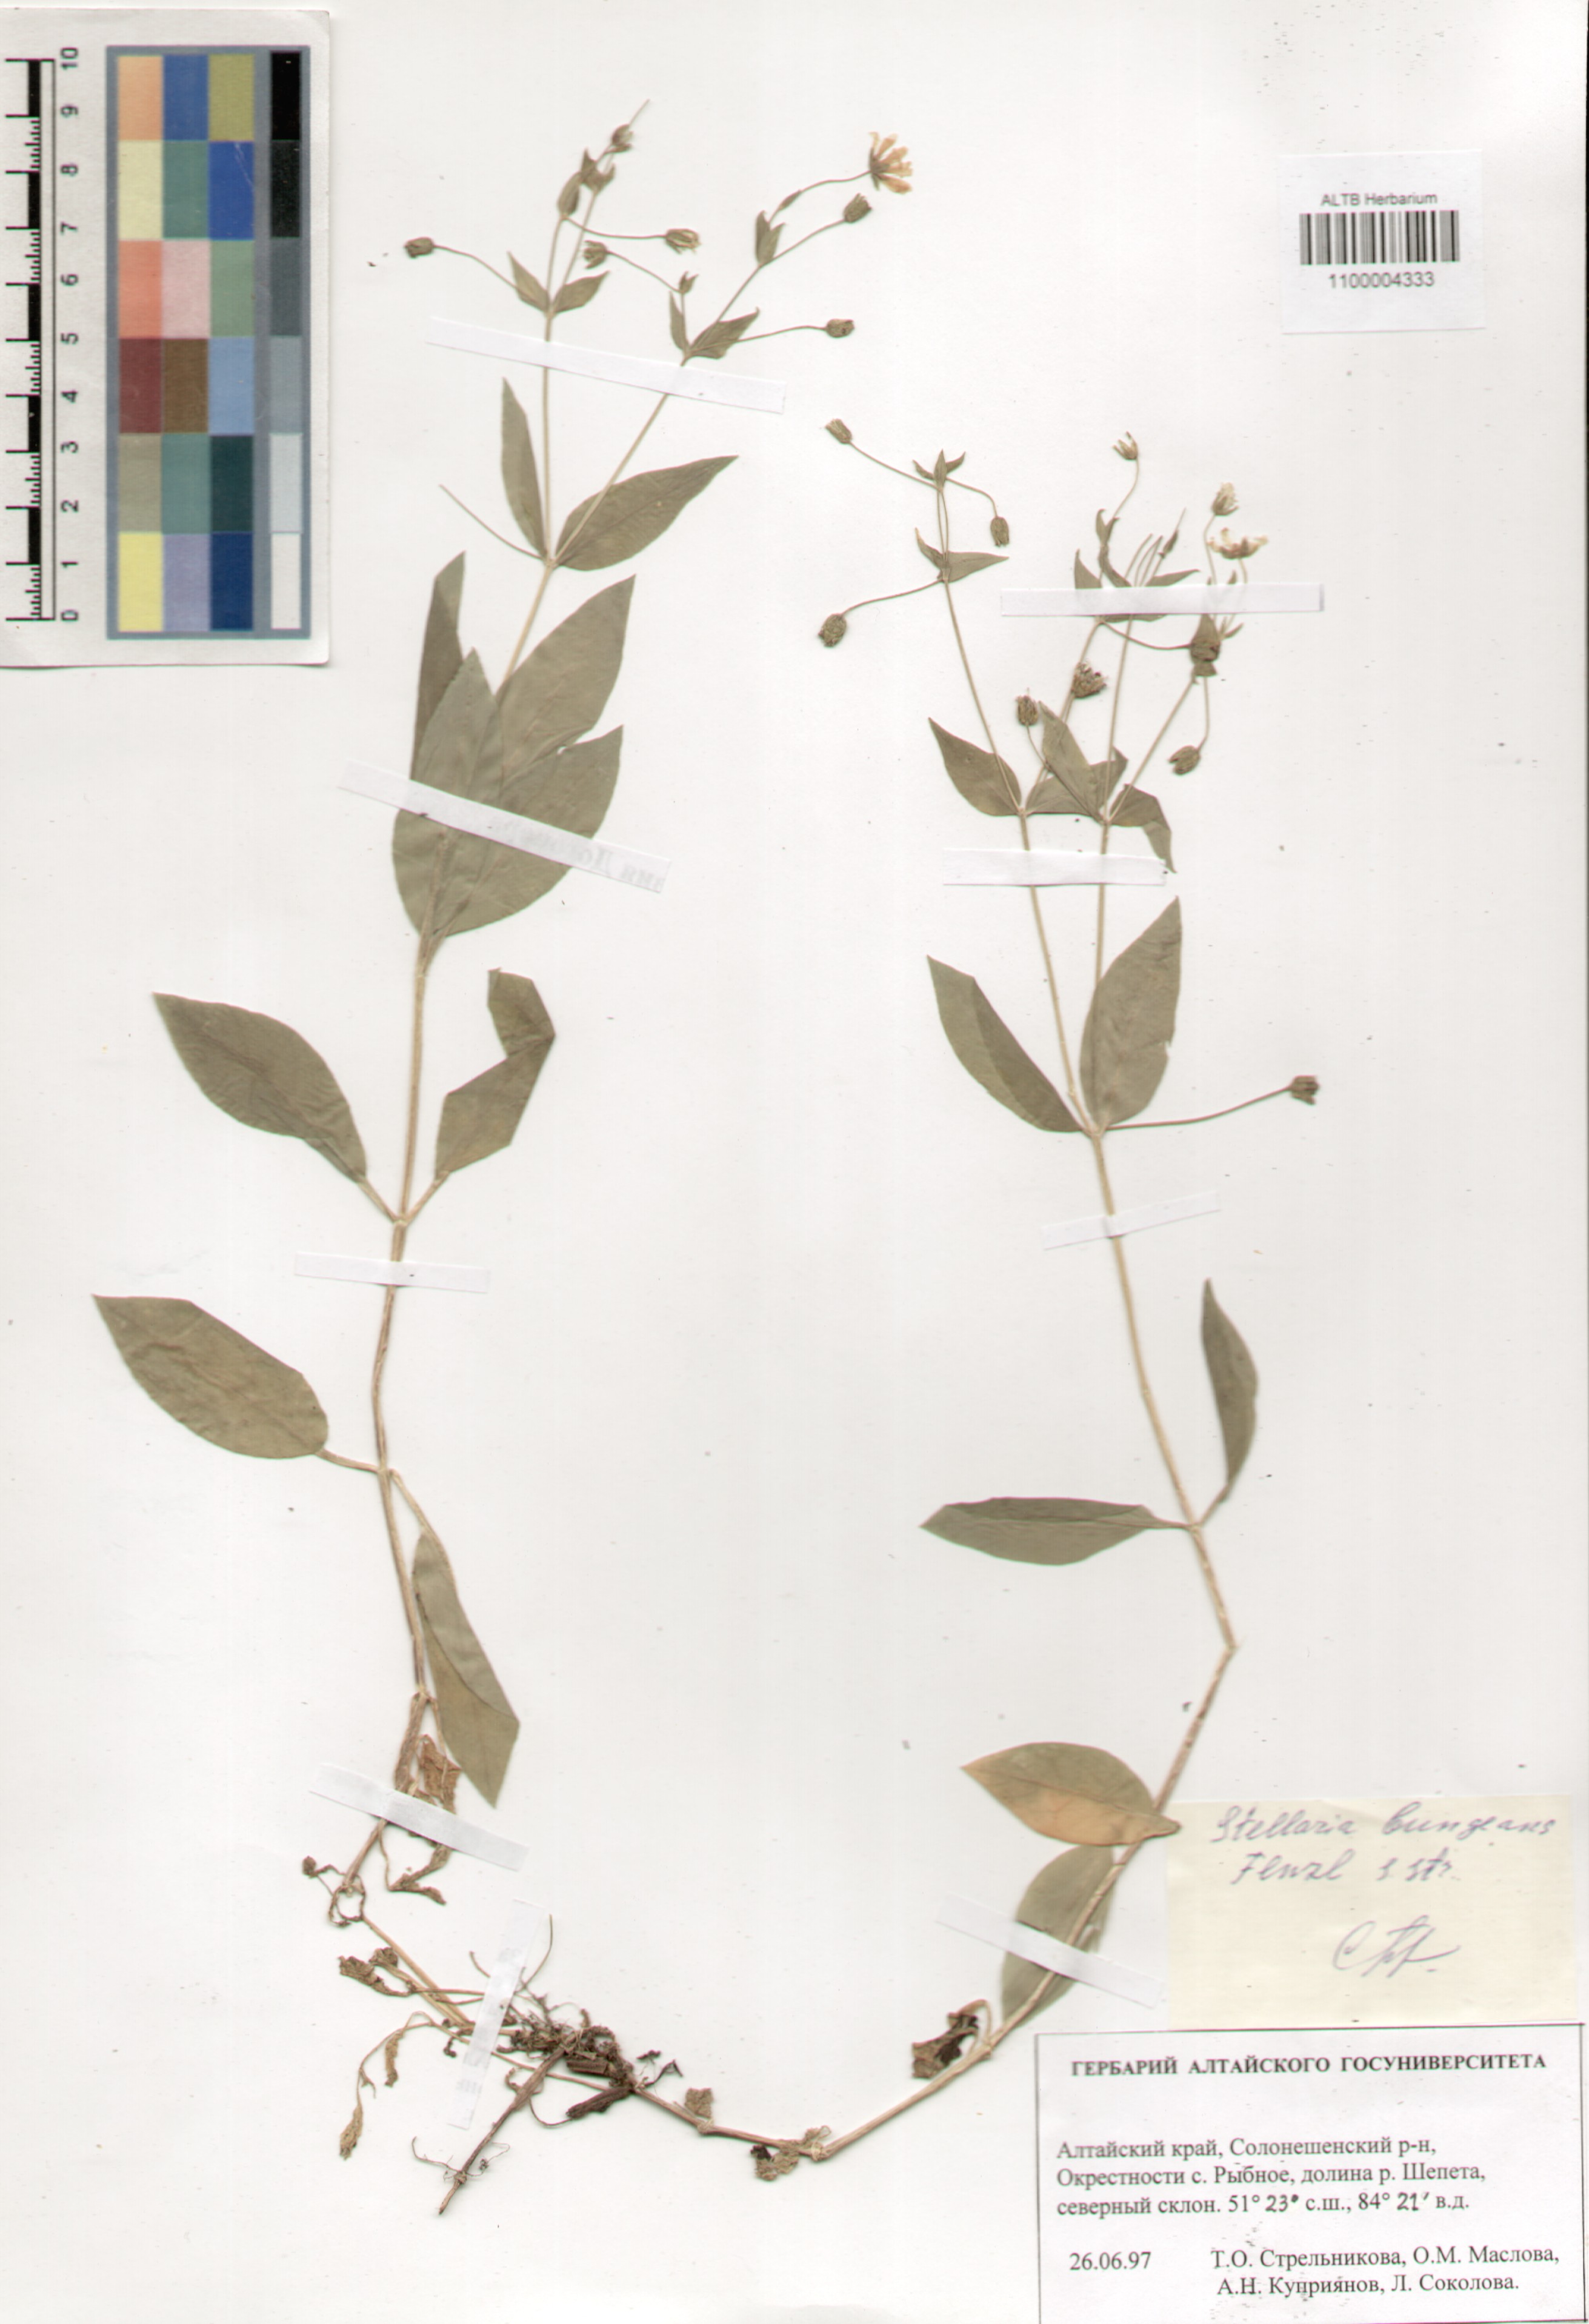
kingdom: Plantae
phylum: Tracheophyta
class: Magnoliopsida
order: Caryophyllales
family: Caryophyllaceae
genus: Stellaria
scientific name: Stellaria bungeana
